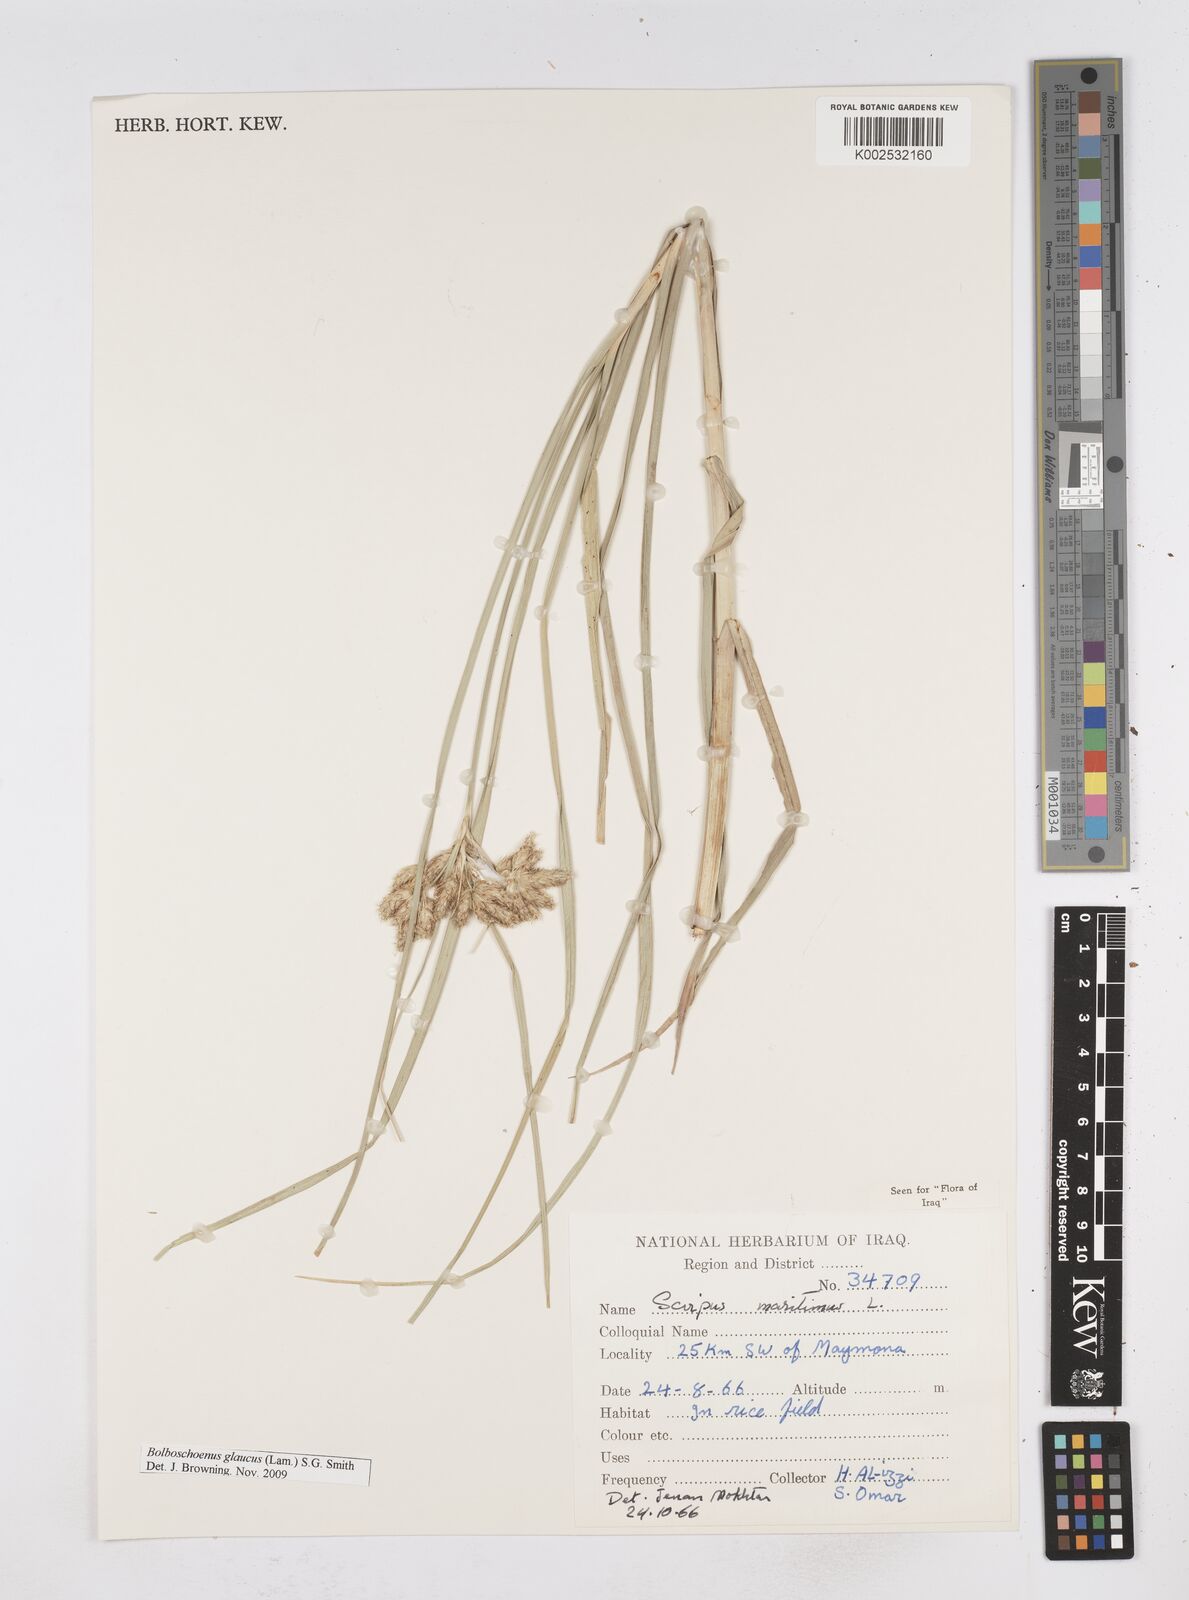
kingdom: Plantae
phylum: Tracheophyta
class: Liliopsida
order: Poales
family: Cyperaceae
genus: Bolboschoenus
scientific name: Bolboschoenus maritimus
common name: Sea club-rush
